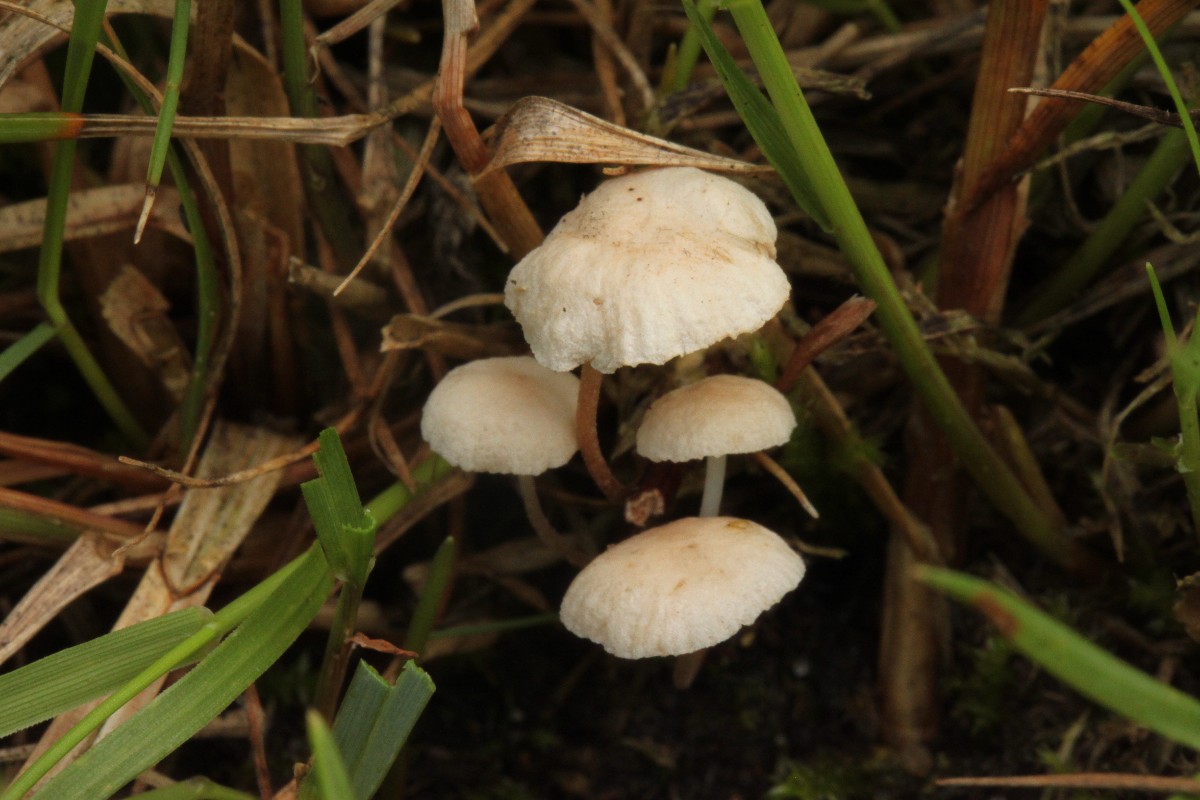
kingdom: Fungi
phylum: Basidiomycota
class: Agaricomycetes
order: Agaricales
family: Omphalotaceae
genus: Collybiopsis
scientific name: Collybiopsis ramealis
